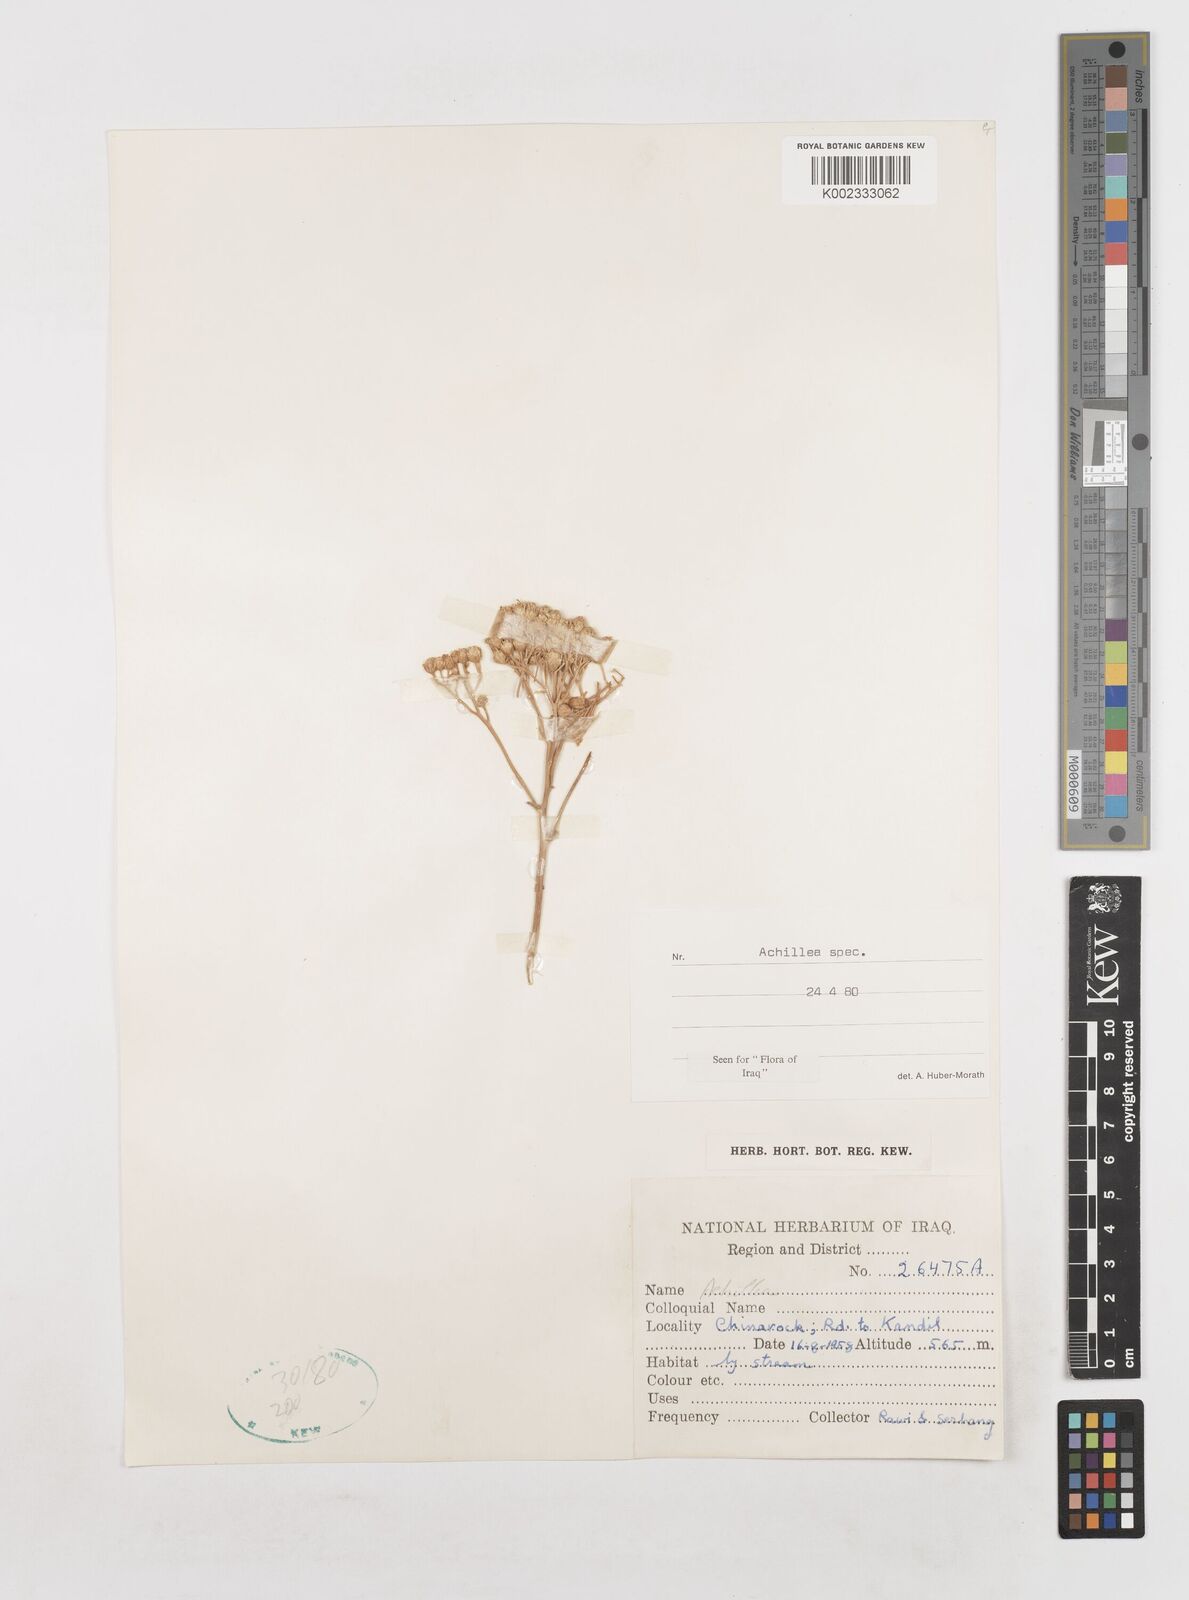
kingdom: Plantae
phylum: Tracheophyta
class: Magnoliopsida
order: Asterales
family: Asteraceae
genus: Achillea
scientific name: Achillea
